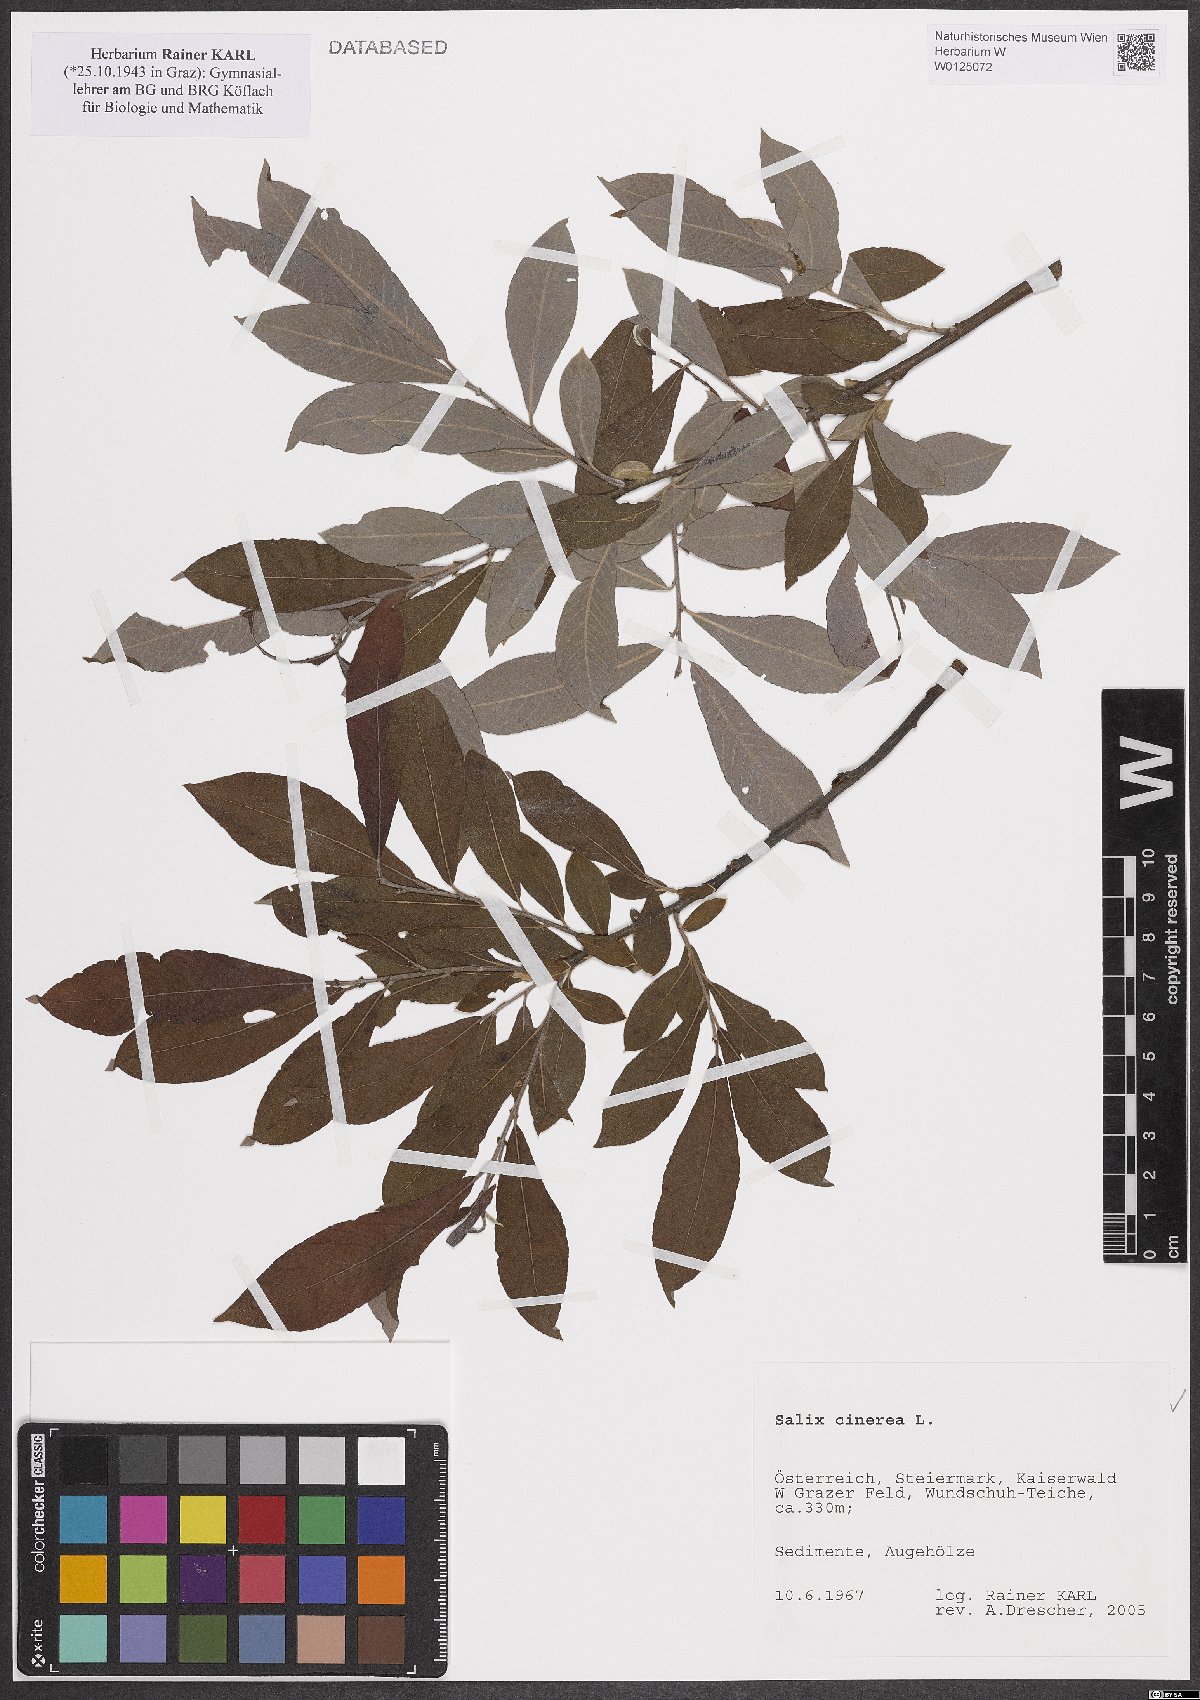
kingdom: Plantae
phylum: Tracheophyta
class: Magnoliopsida
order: Malpighiales
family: Salicaceae
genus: Salix
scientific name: Salix cinerea
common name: Common sallow
